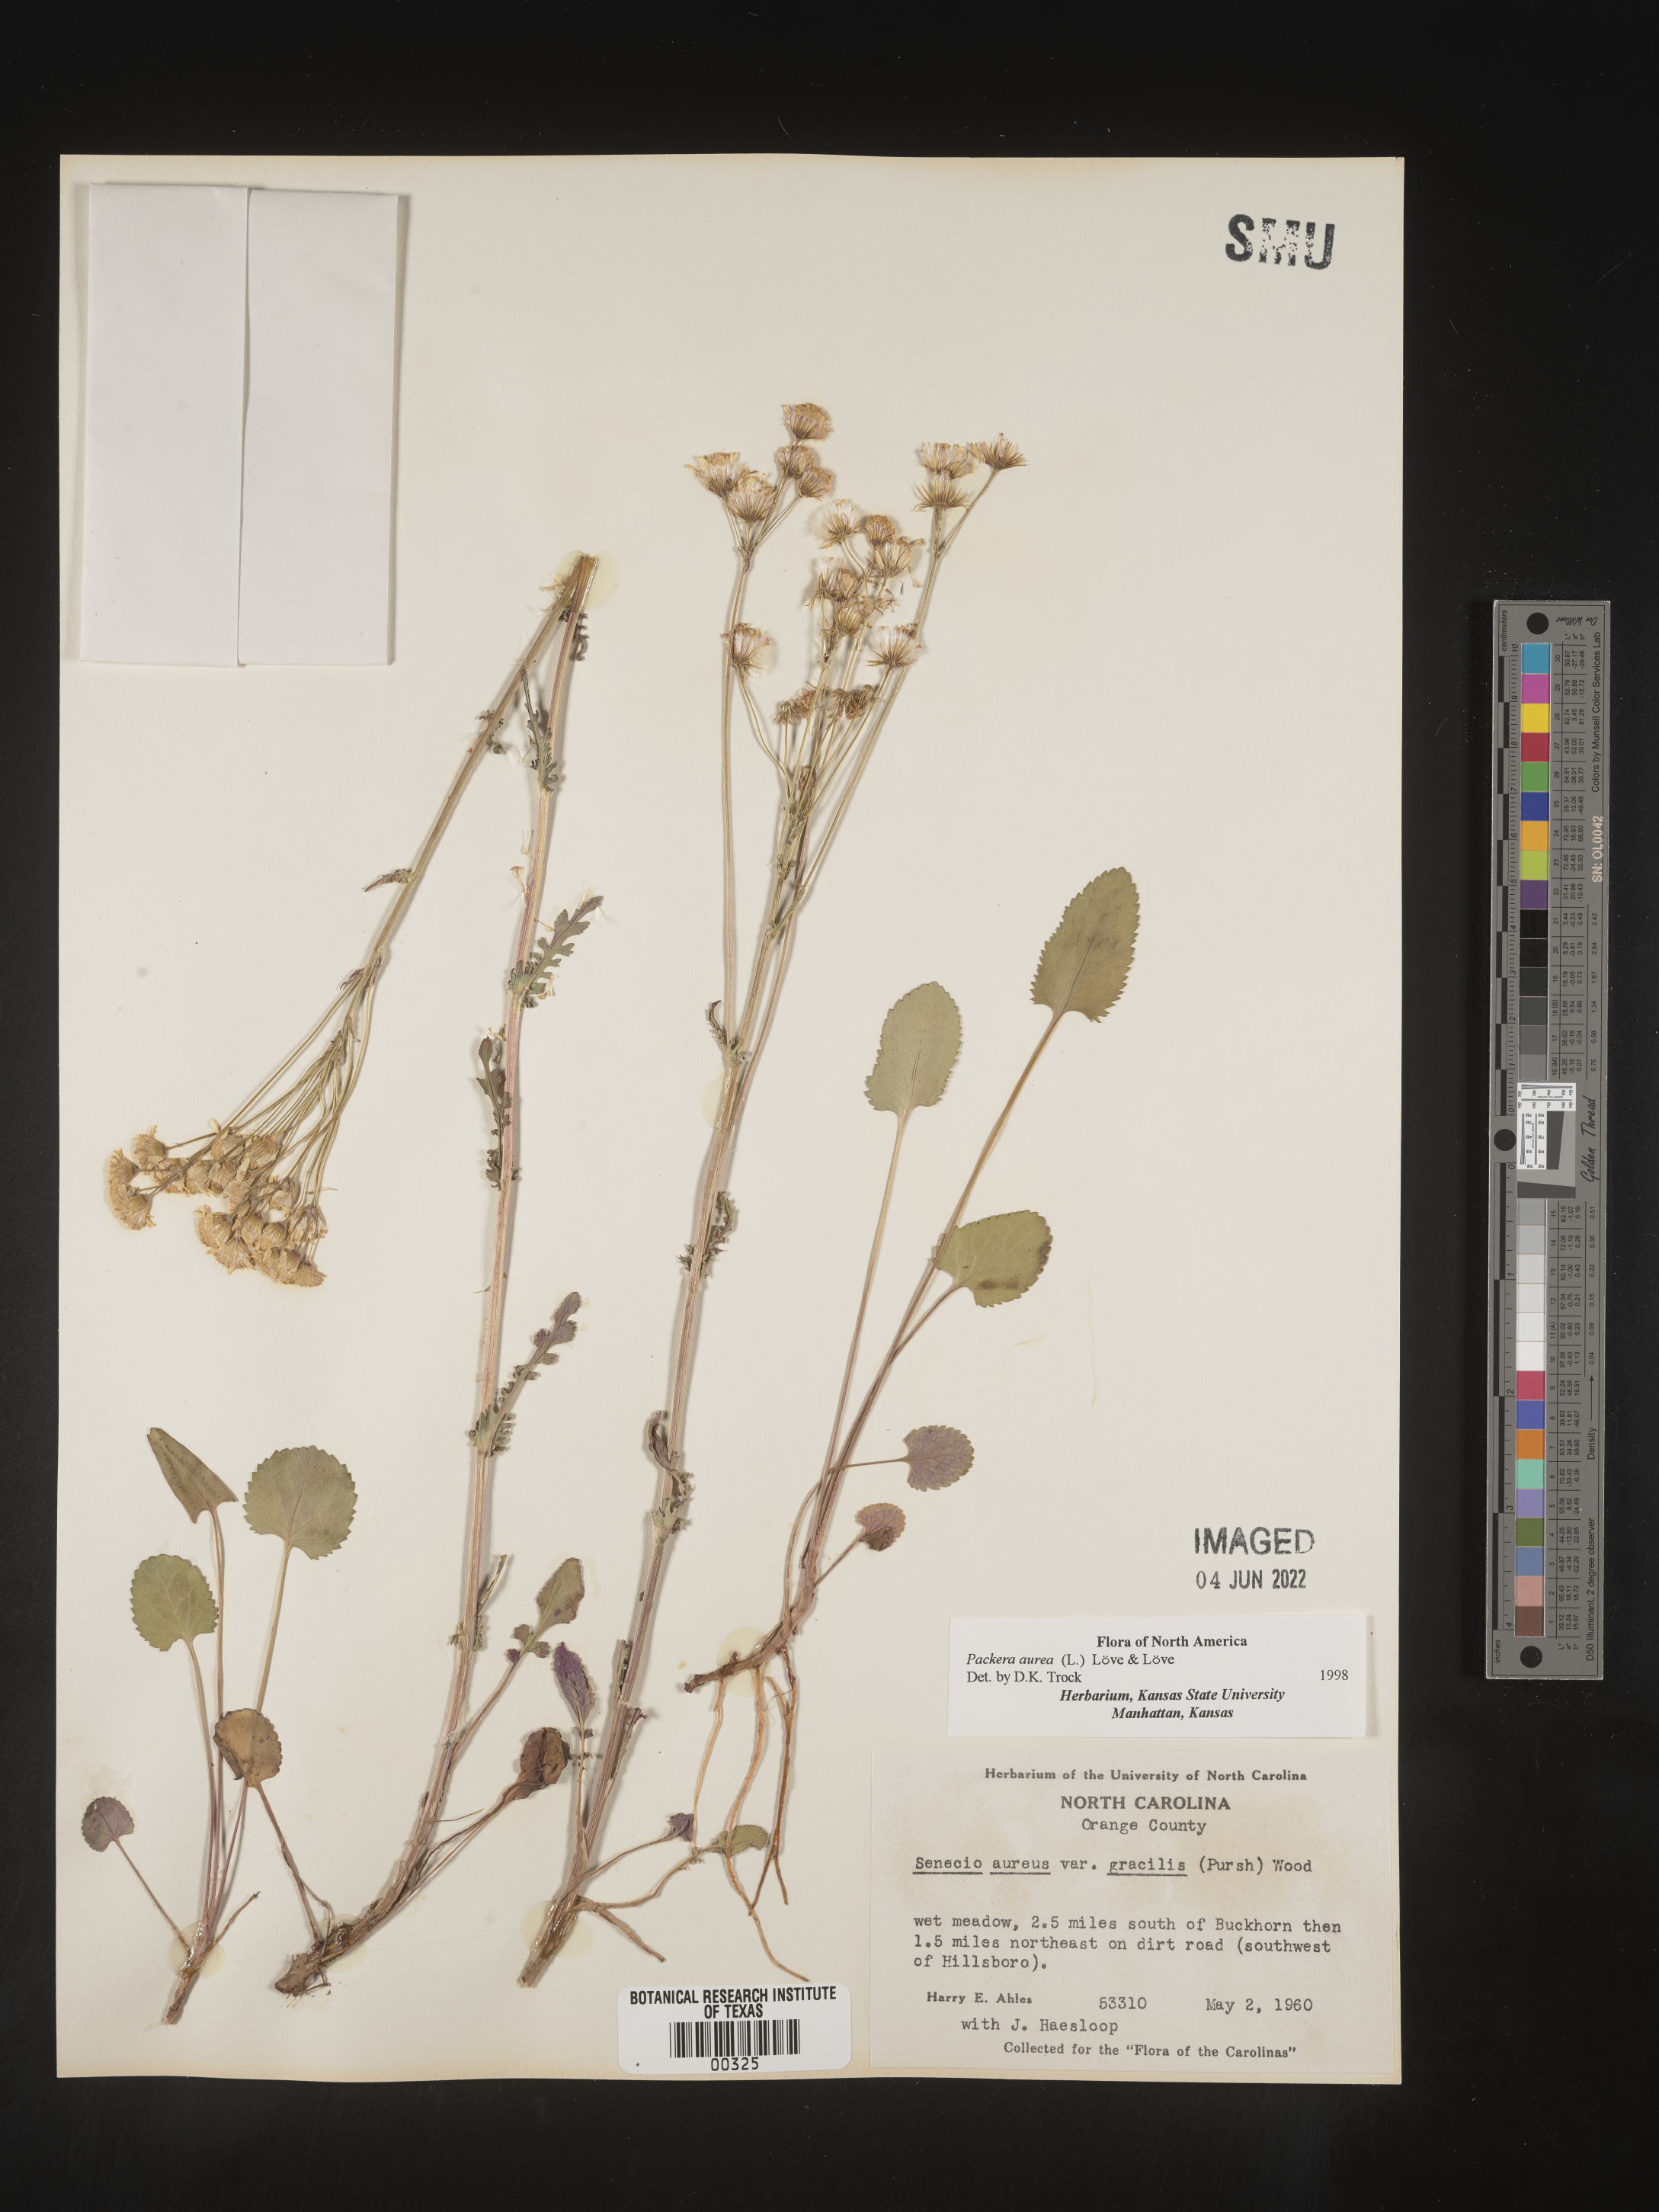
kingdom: Plantae
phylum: Tracheophyta
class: Magnoliopsida
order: Asterales
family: Asteraceae
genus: Packera
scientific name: Packera aurea
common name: Golden groundsel
